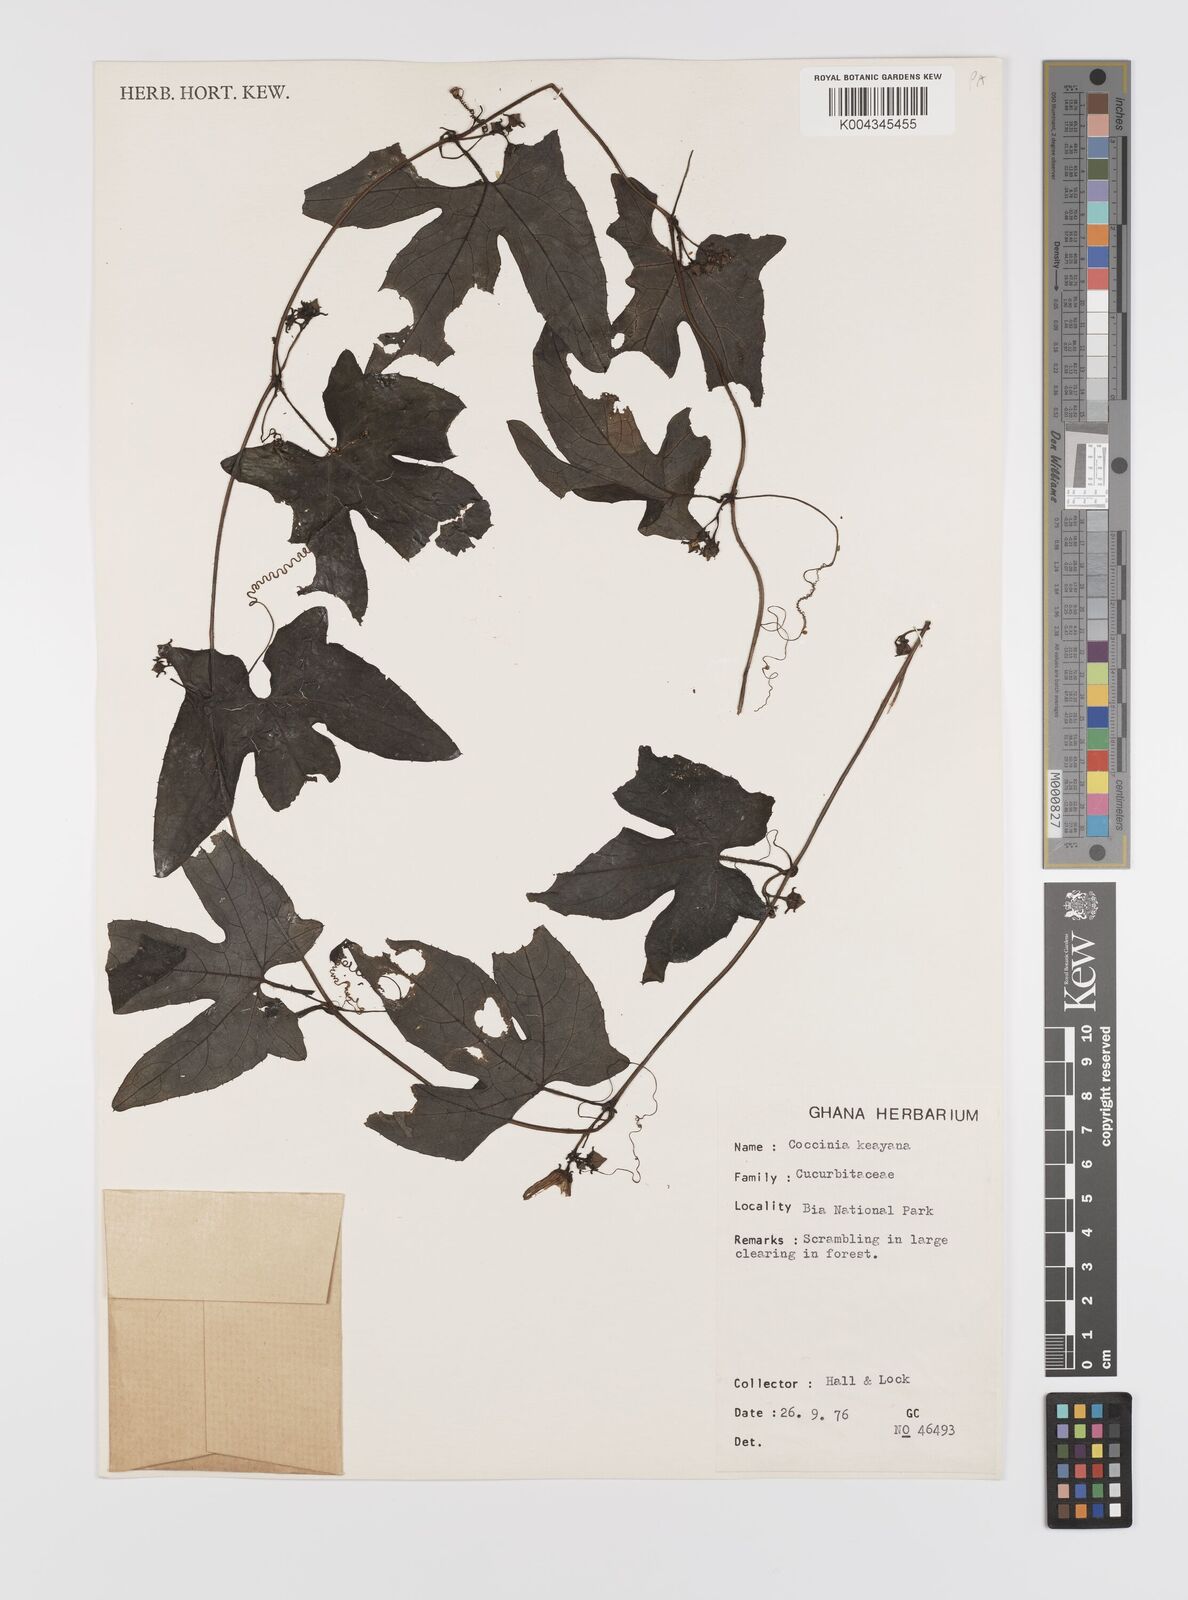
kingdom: Plantae
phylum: Tracheophyta
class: Magnoliopsida
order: Cucurbitales
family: Cucurbitaceae
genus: Coccinia
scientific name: Coccinia keayana
